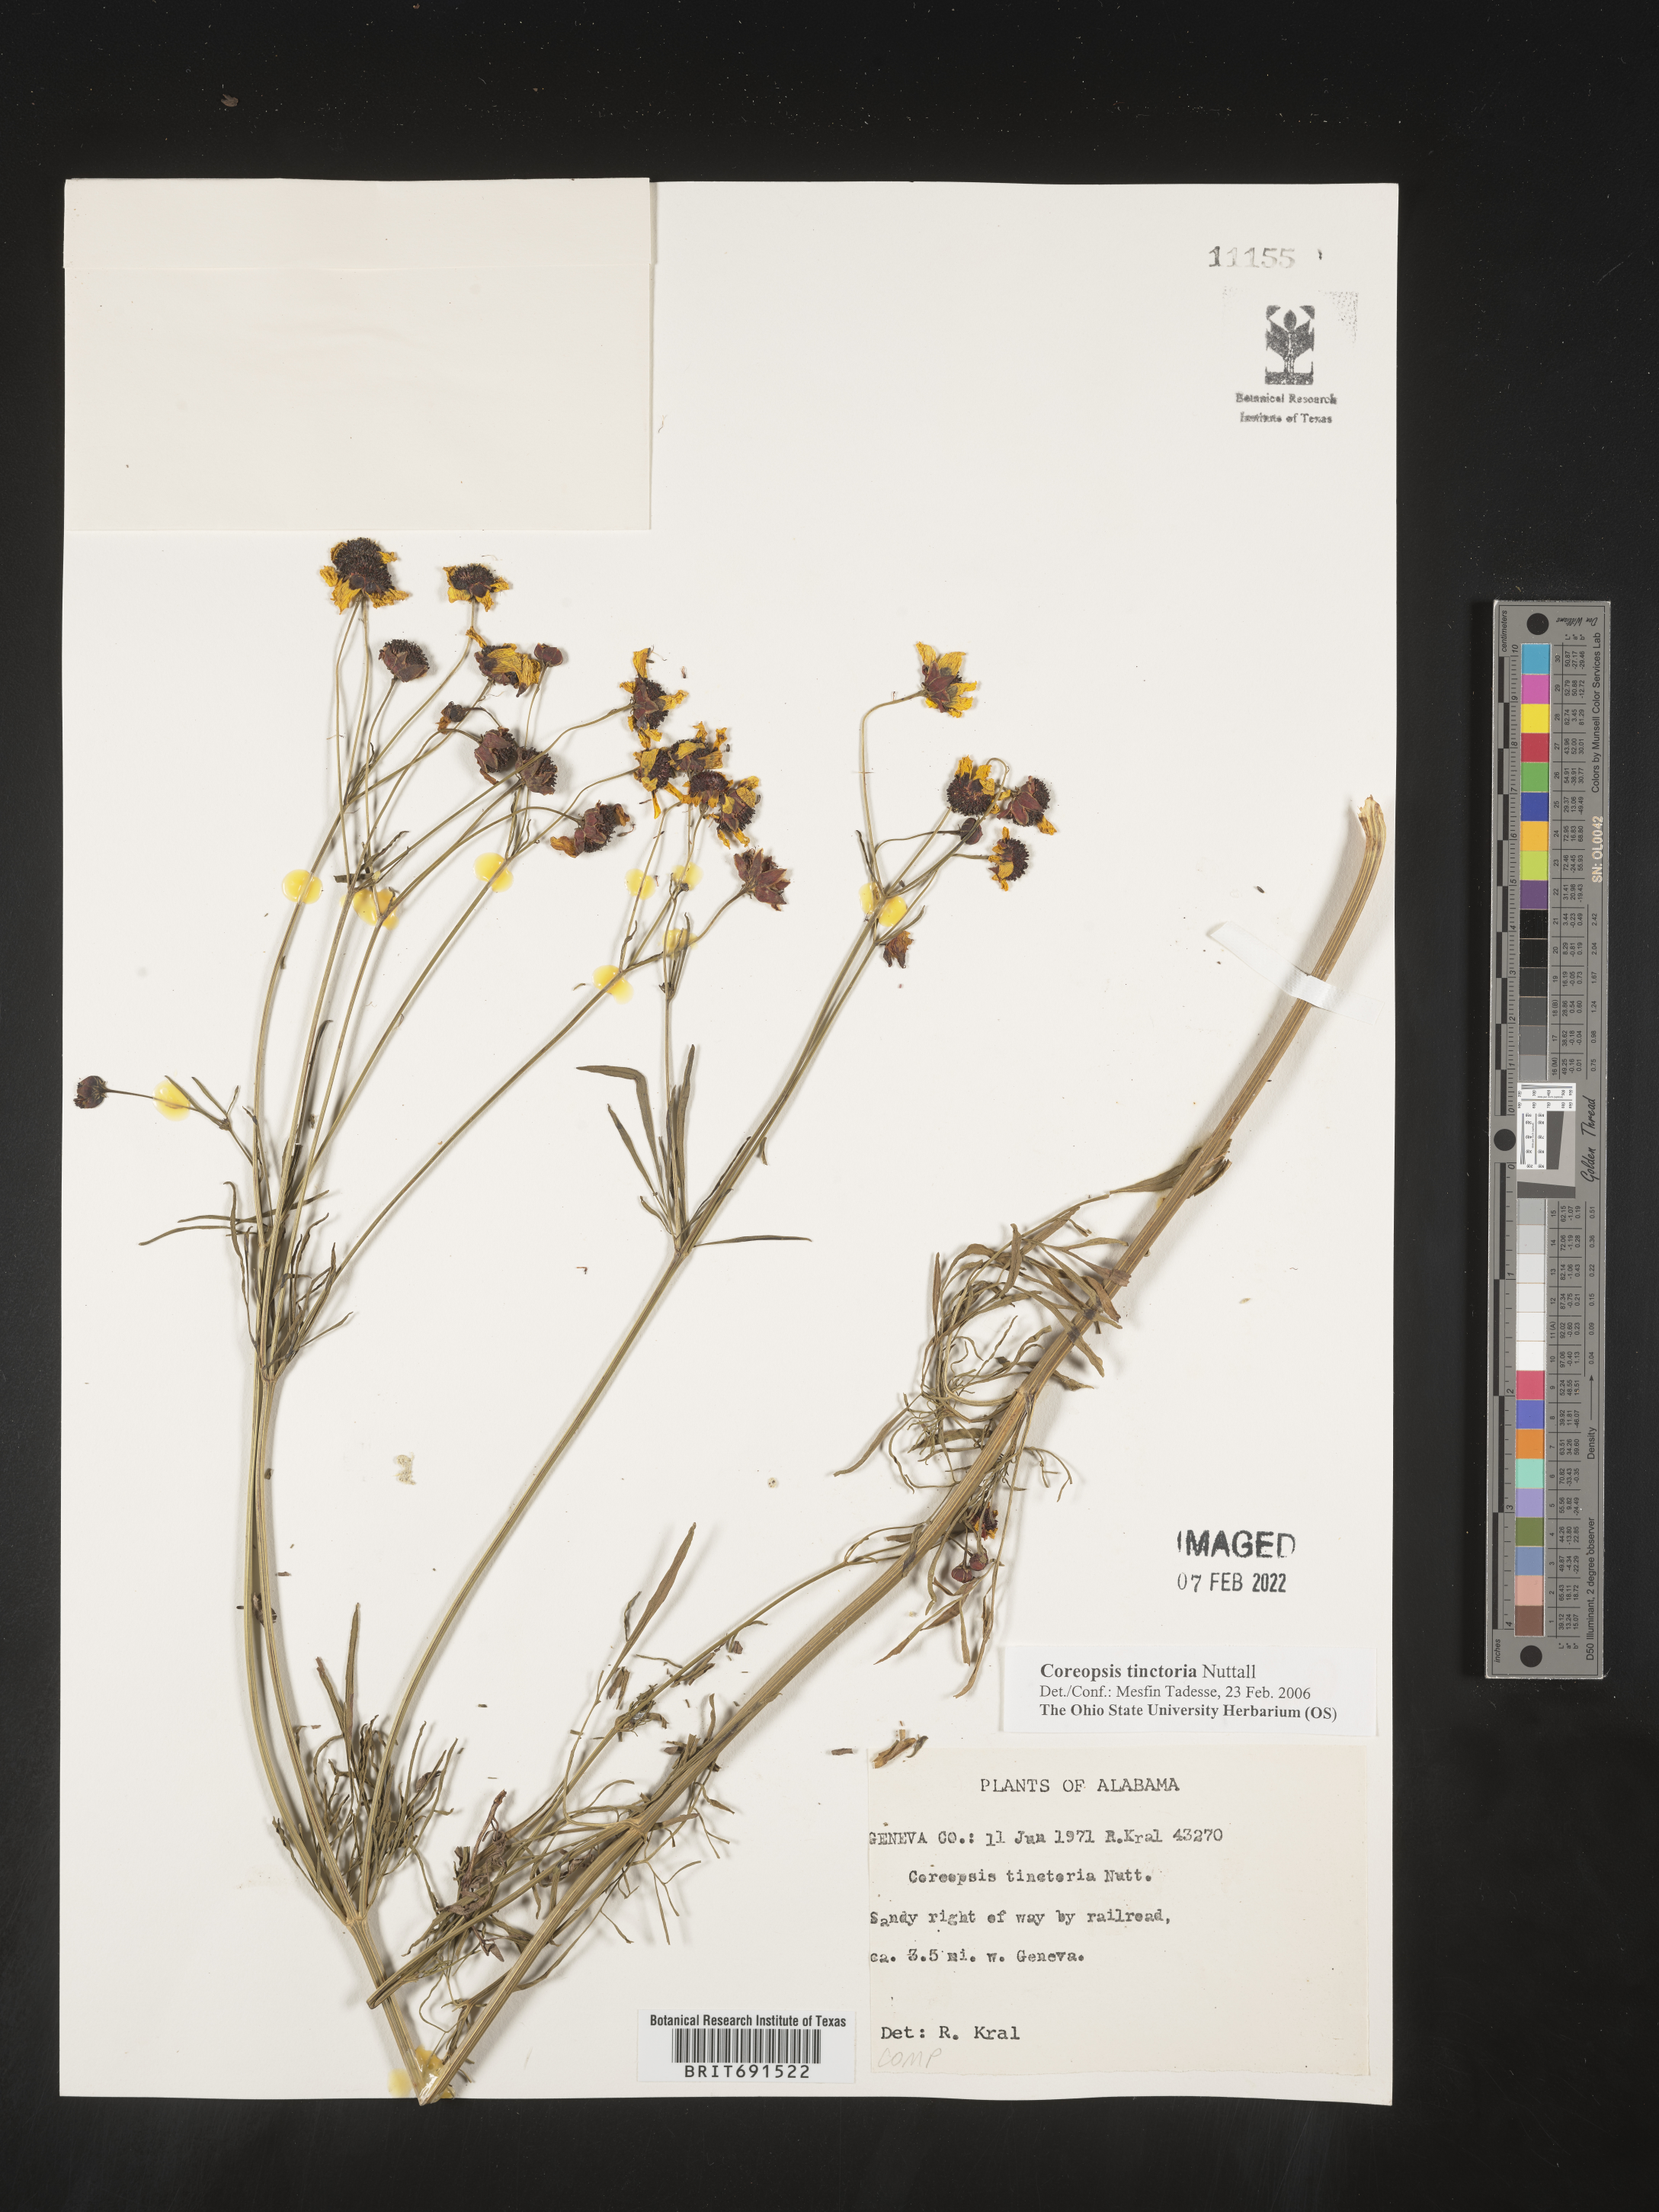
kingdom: Plantae
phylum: Tracheophyta
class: Magnoliopsida
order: Asterales
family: Asteraceae
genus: Coreopsis
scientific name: Coreopsis tinctoria
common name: Garden tickseed
